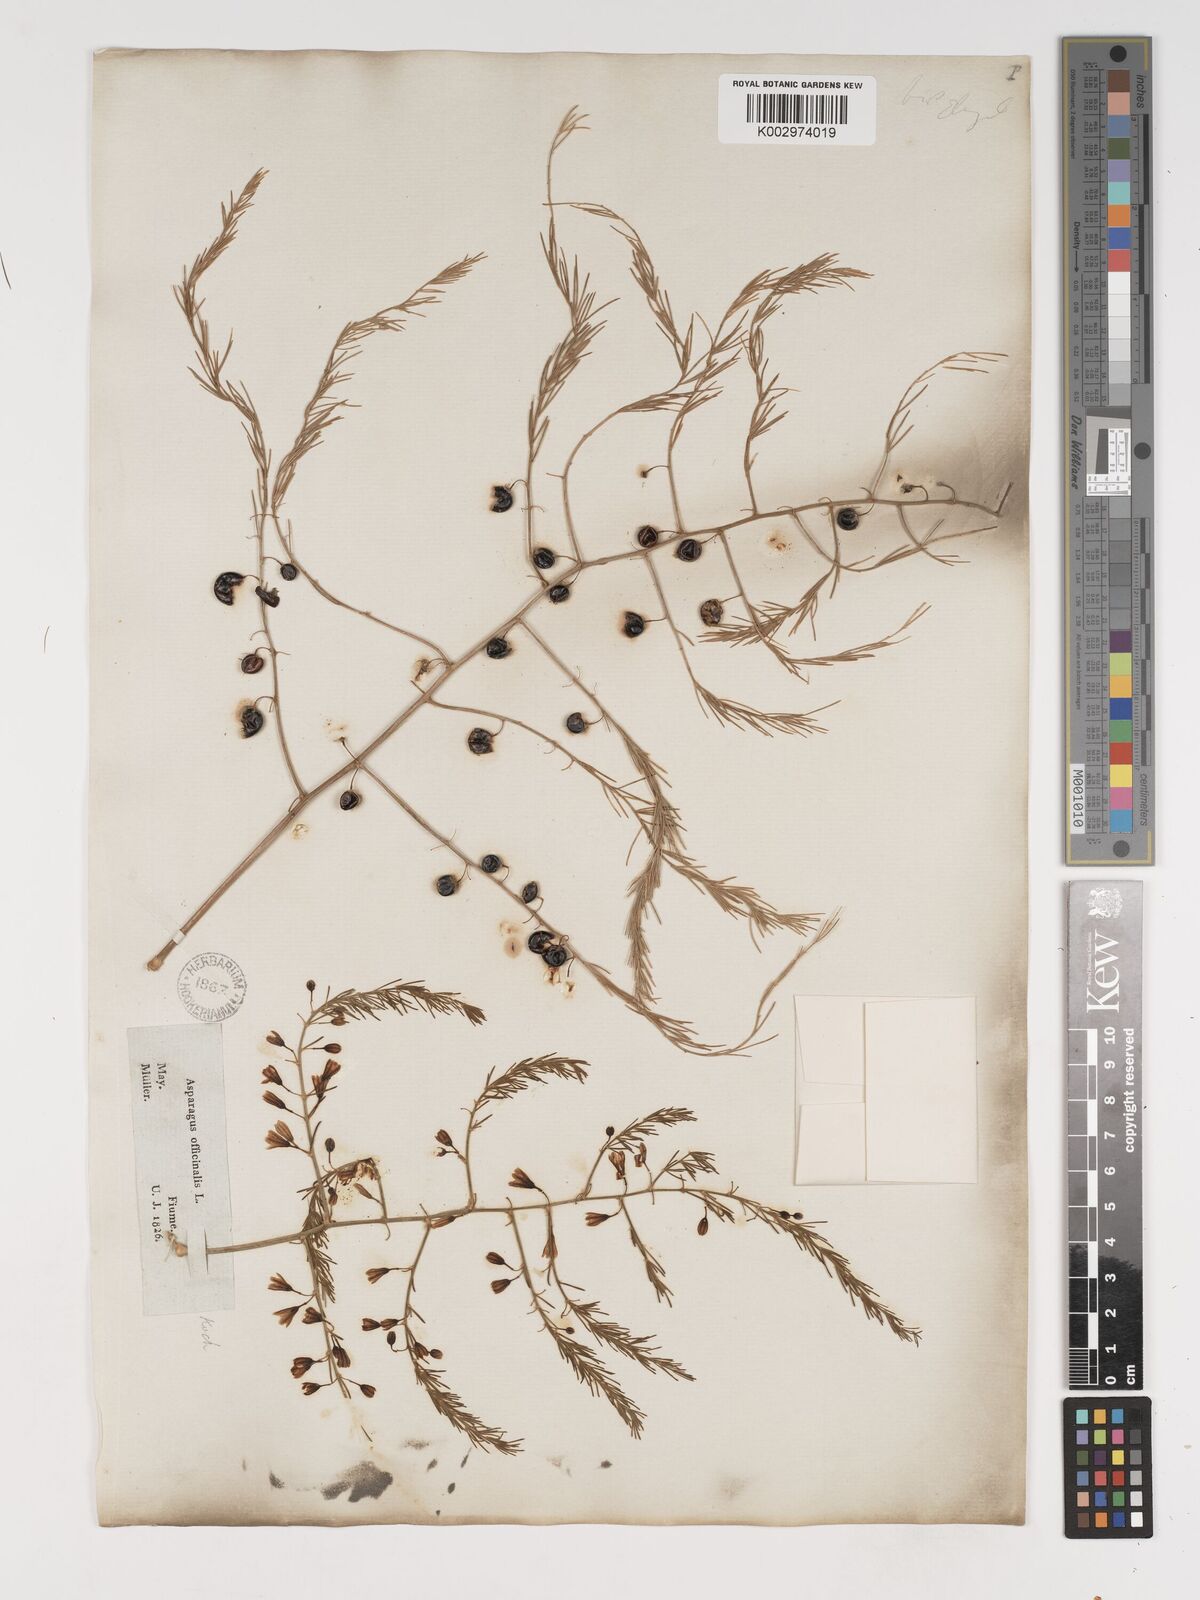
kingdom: Plantae
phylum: Tracheophyta
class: Liliopsida
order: Asparagales
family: Asparagaceae
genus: Asparagus
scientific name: Asparagus officinalis
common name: Garden asparagus
